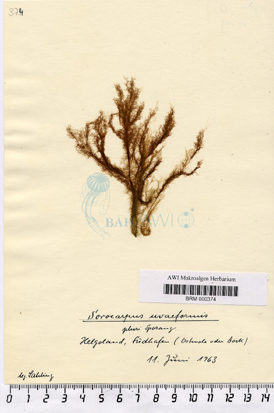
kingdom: Chromista
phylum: Ochrophyta
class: Phaeophyceae
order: Ectocarpales
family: Chordariaceae
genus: Botrytella
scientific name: Botrytella micromora
